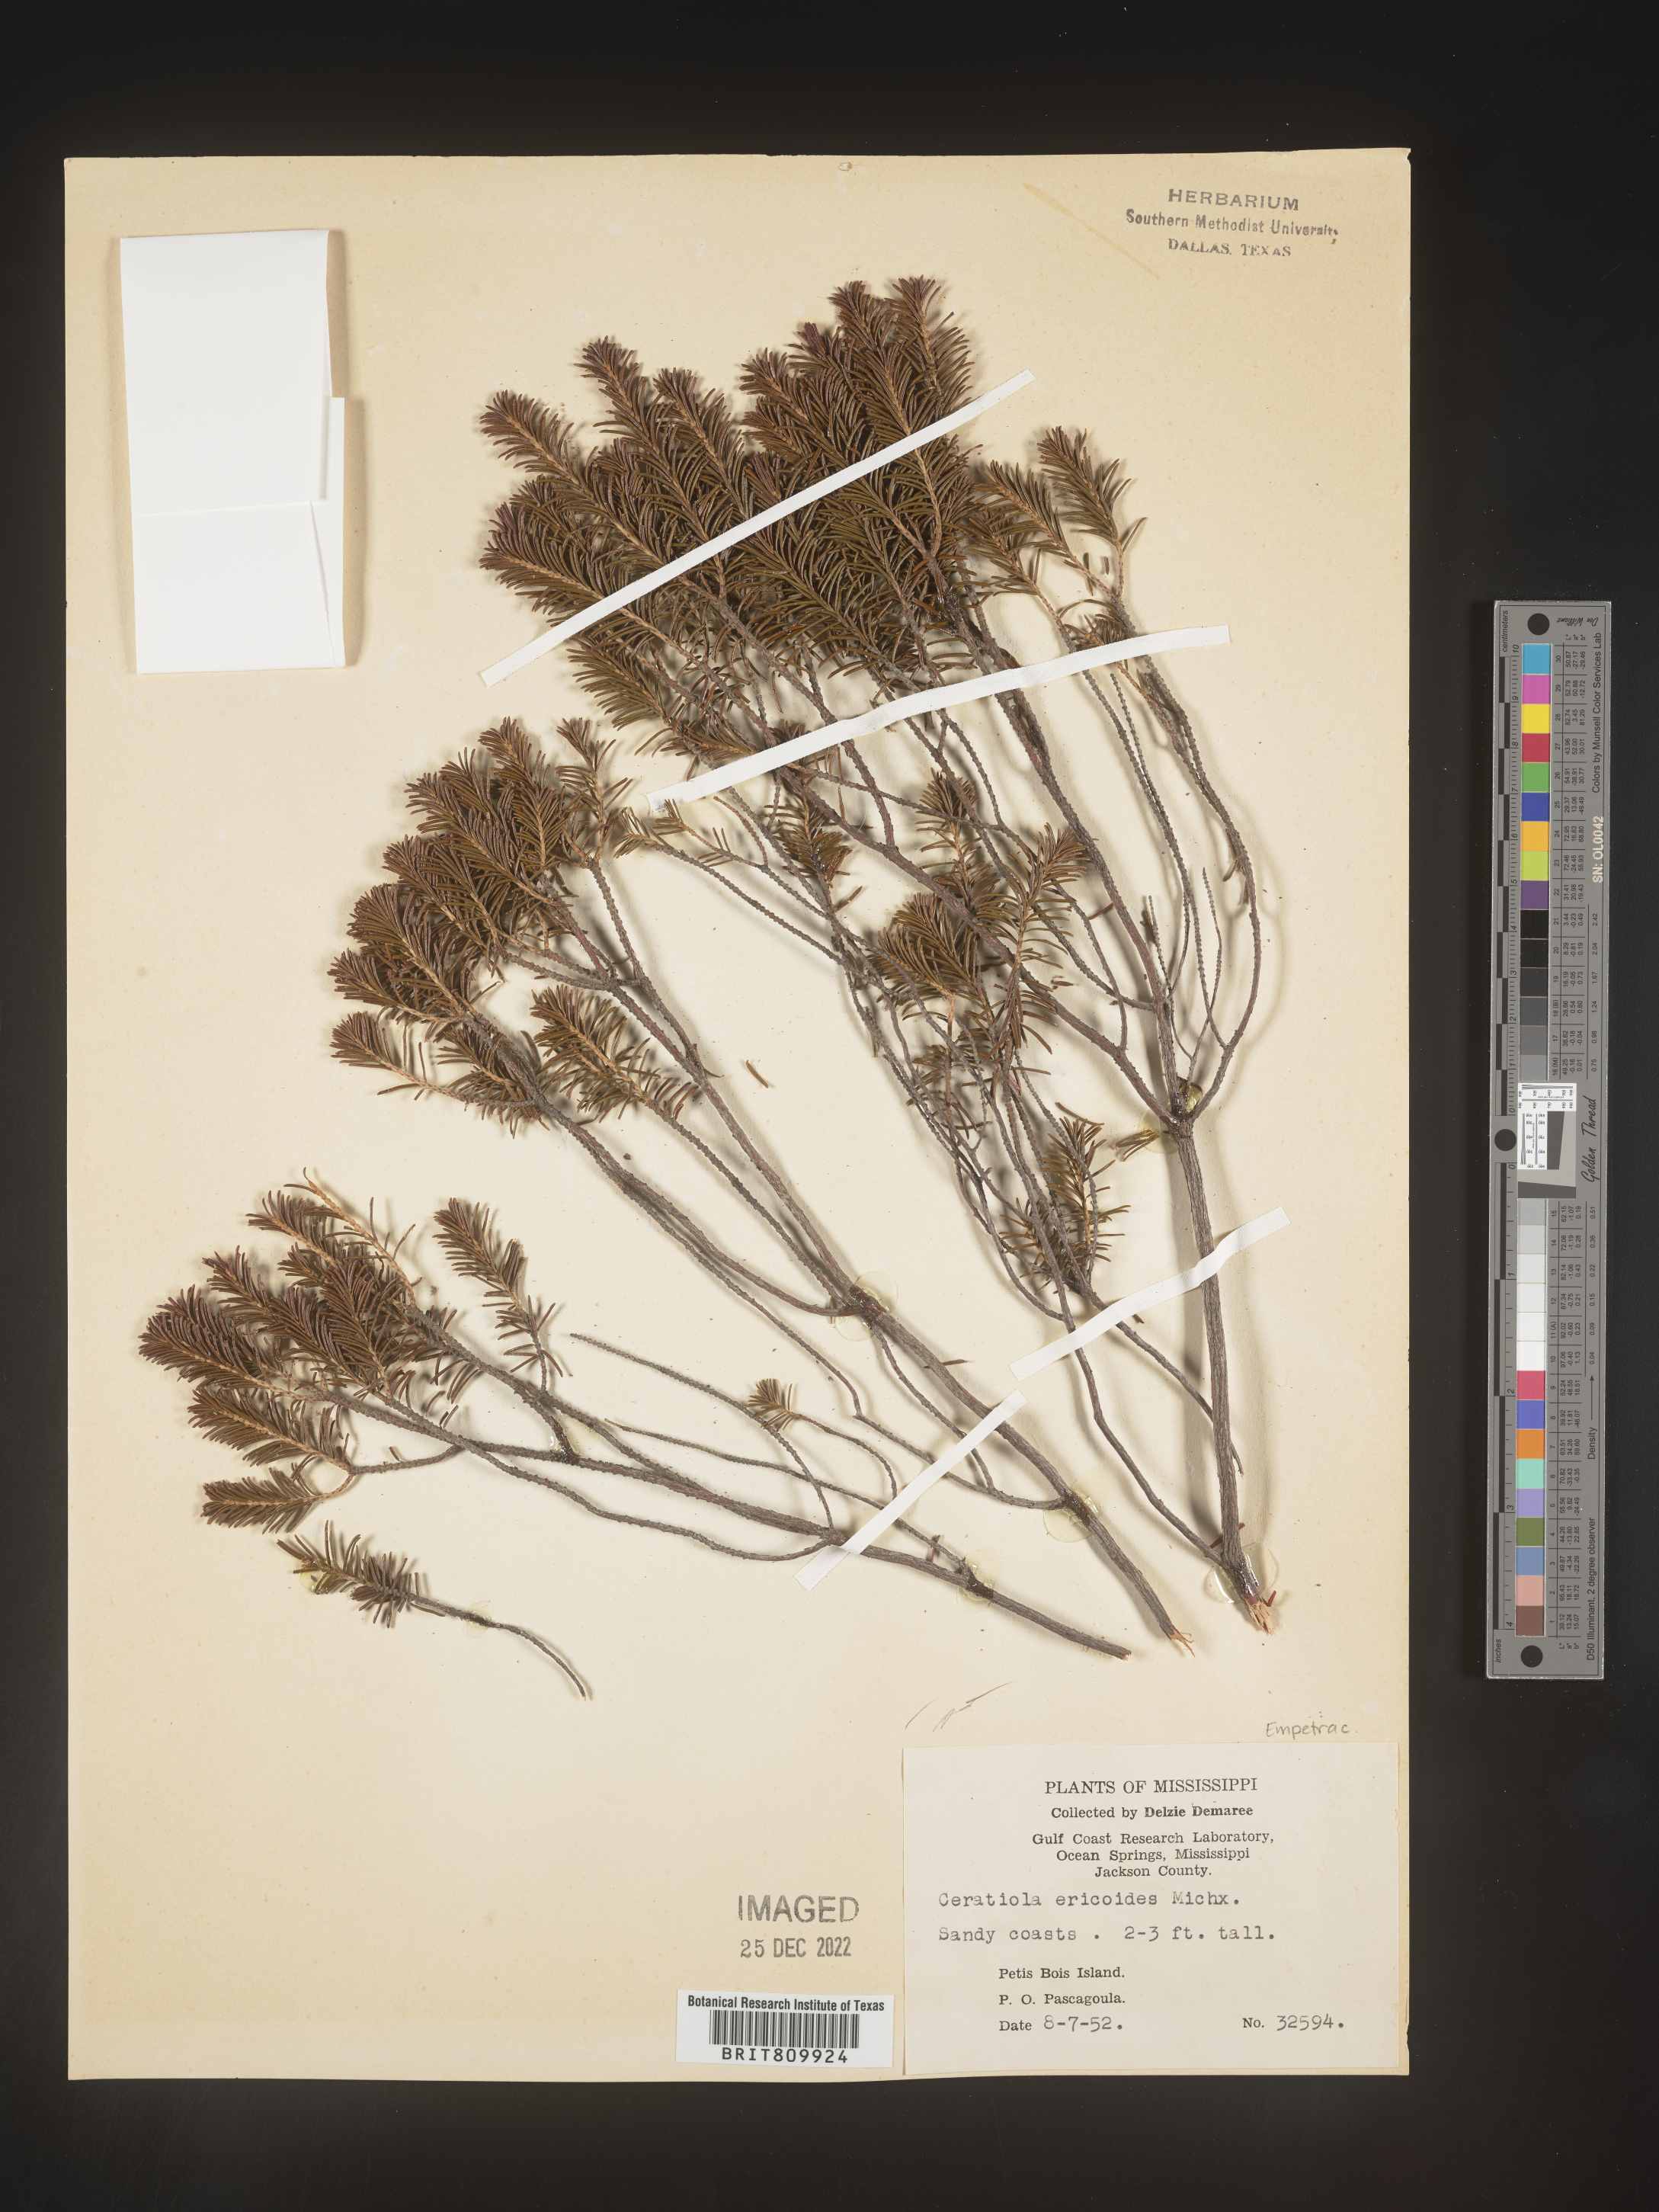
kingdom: Plantae
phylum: Tracheophyta
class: Magnoliopsida
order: Ericales
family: Ericaceae
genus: Ceratiola
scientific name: Ceratiola ericoides
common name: Sandhill-rosemary
